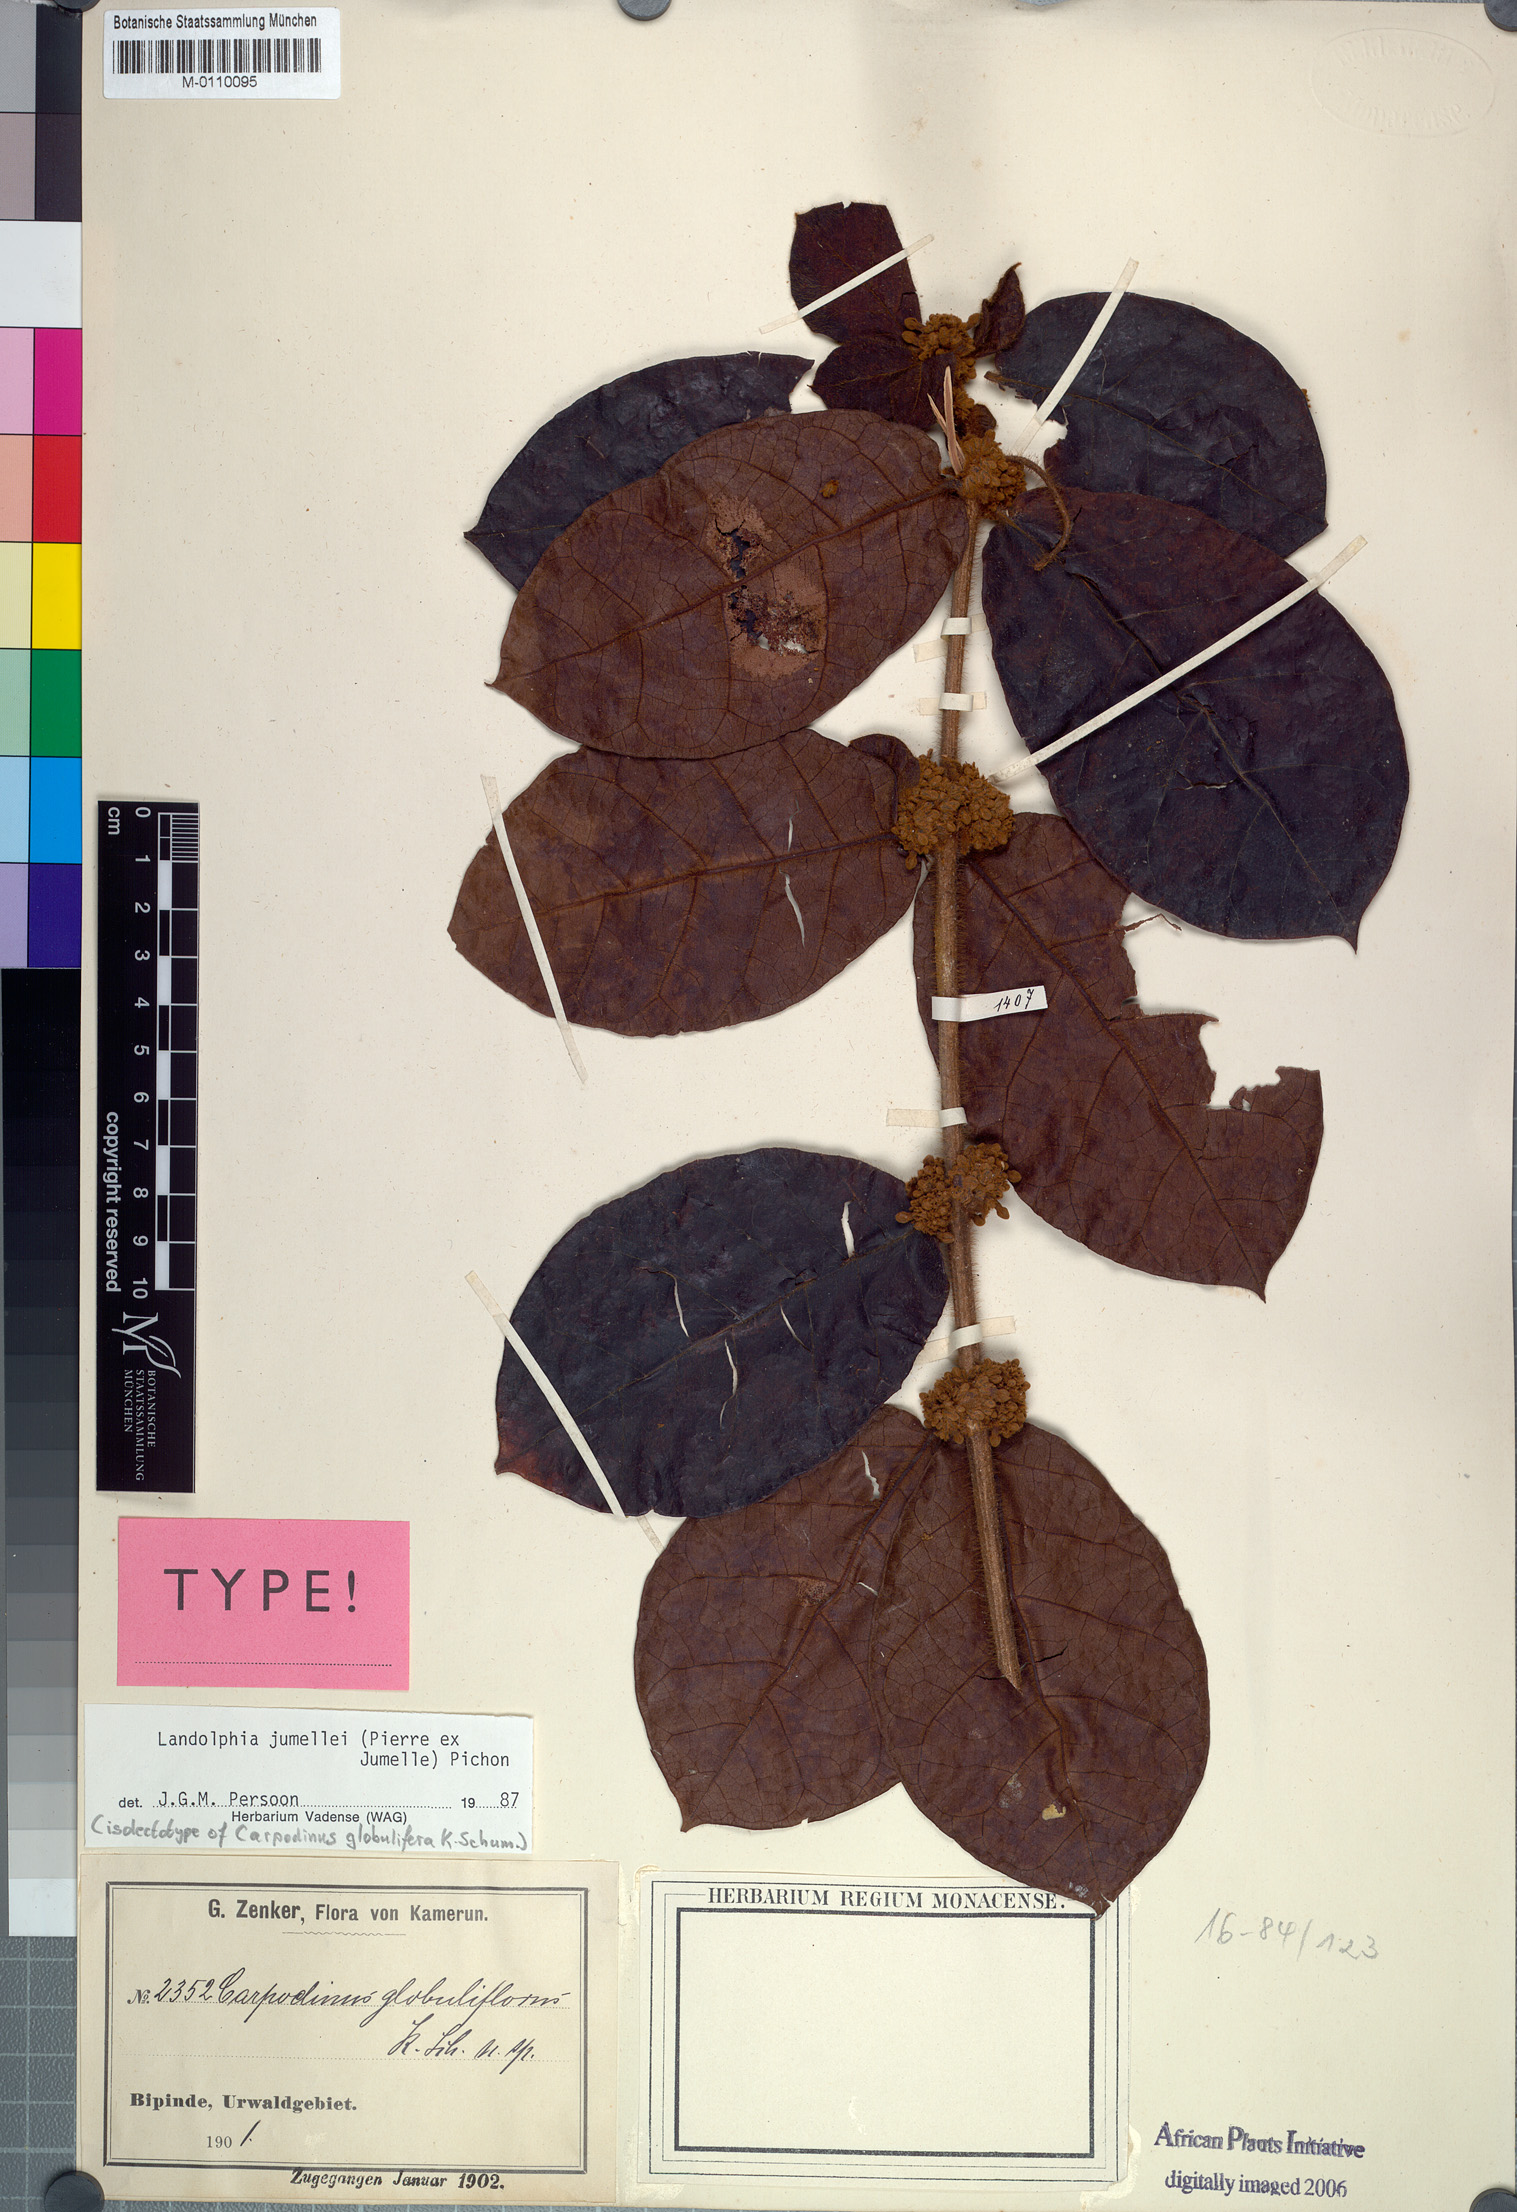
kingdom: Plantae
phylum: Tracheophyta
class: Magnoliopsida
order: Gentianales
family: Apocynaceae
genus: Landolphia
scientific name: Landolphia jumellei
